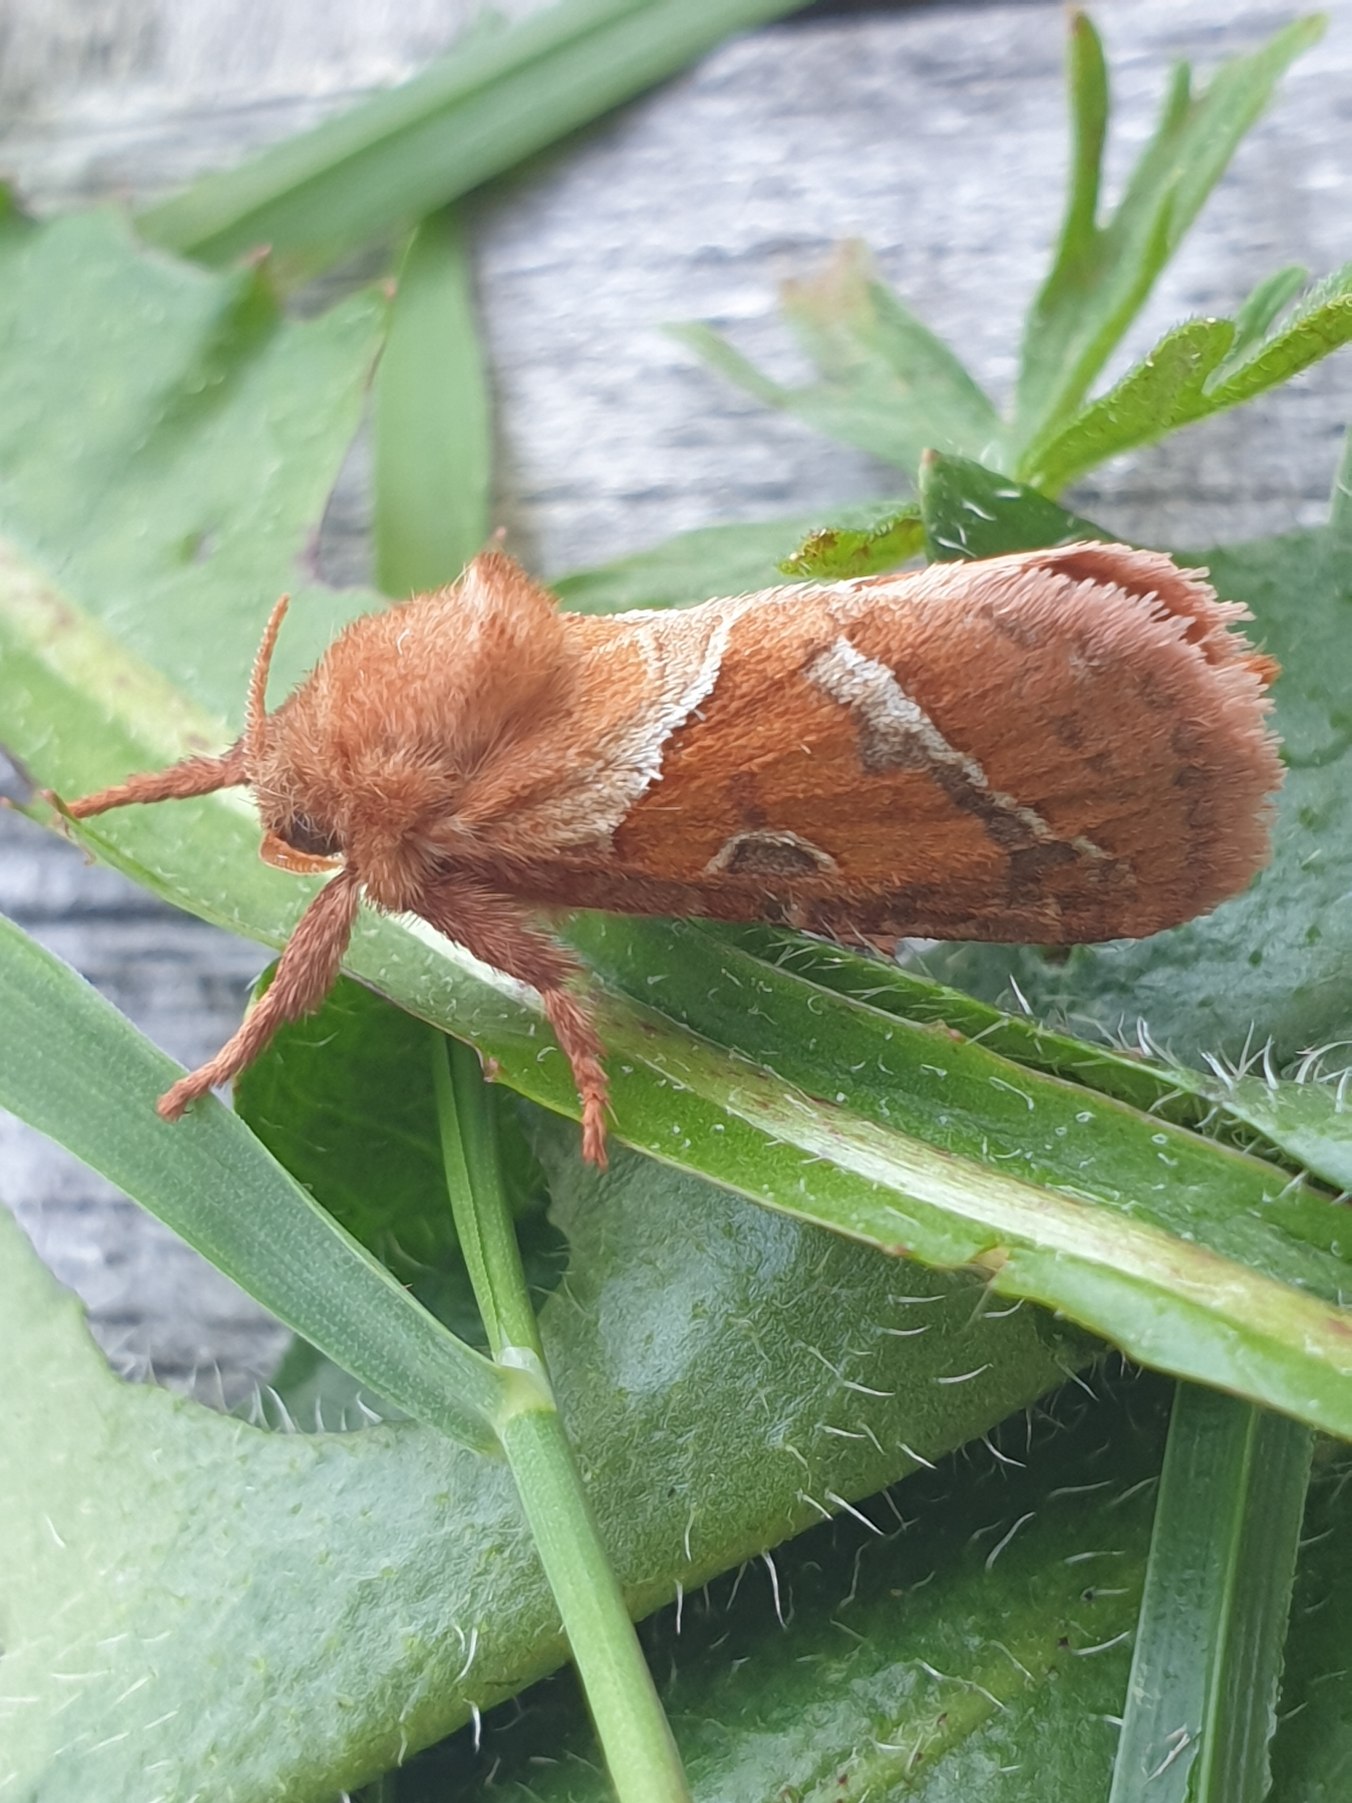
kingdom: Animalia
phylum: Arthropoda
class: Insecta
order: Lepidoptera
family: Hepialidae
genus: Triodia
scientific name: Triodia sylvina
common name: Skræpperodæder
